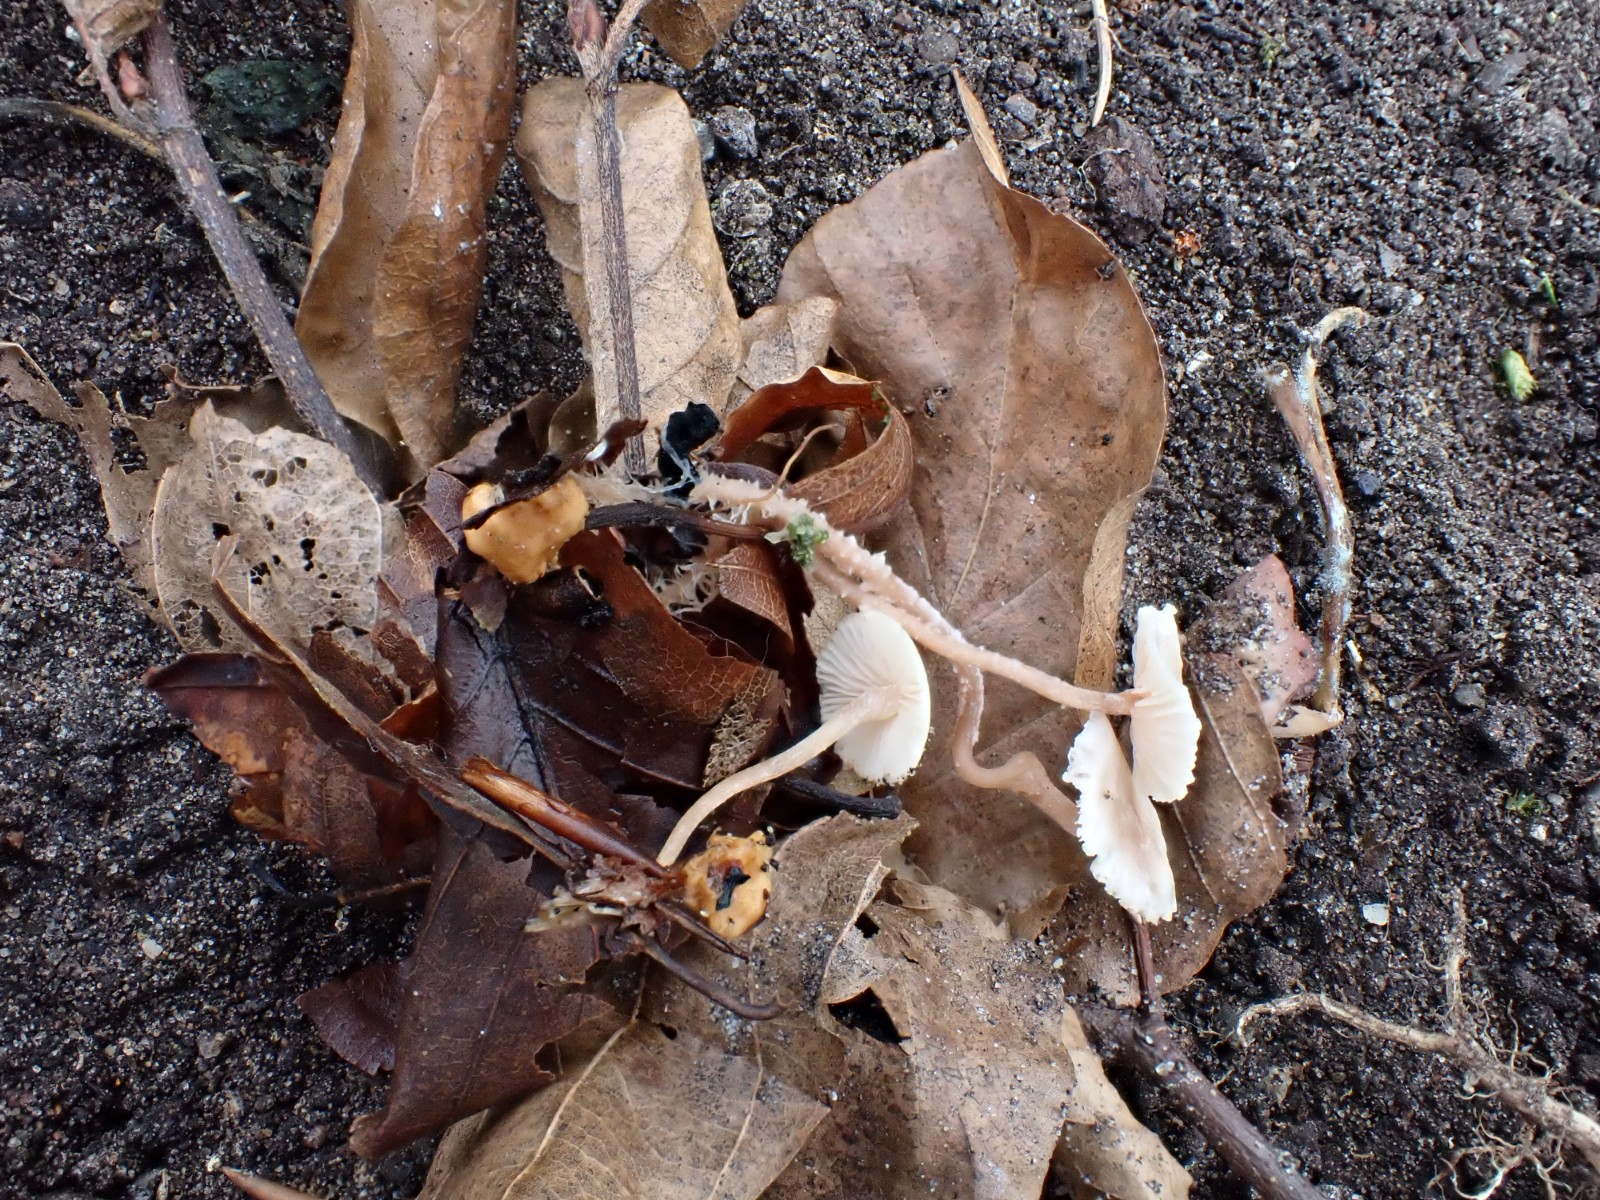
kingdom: Fungi
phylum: Basidiomycota
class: Agaricomycetes
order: Agaricales
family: Tricholomataceae
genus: Collybia
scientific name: Collybia cookei
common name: gulknoldet lighat
